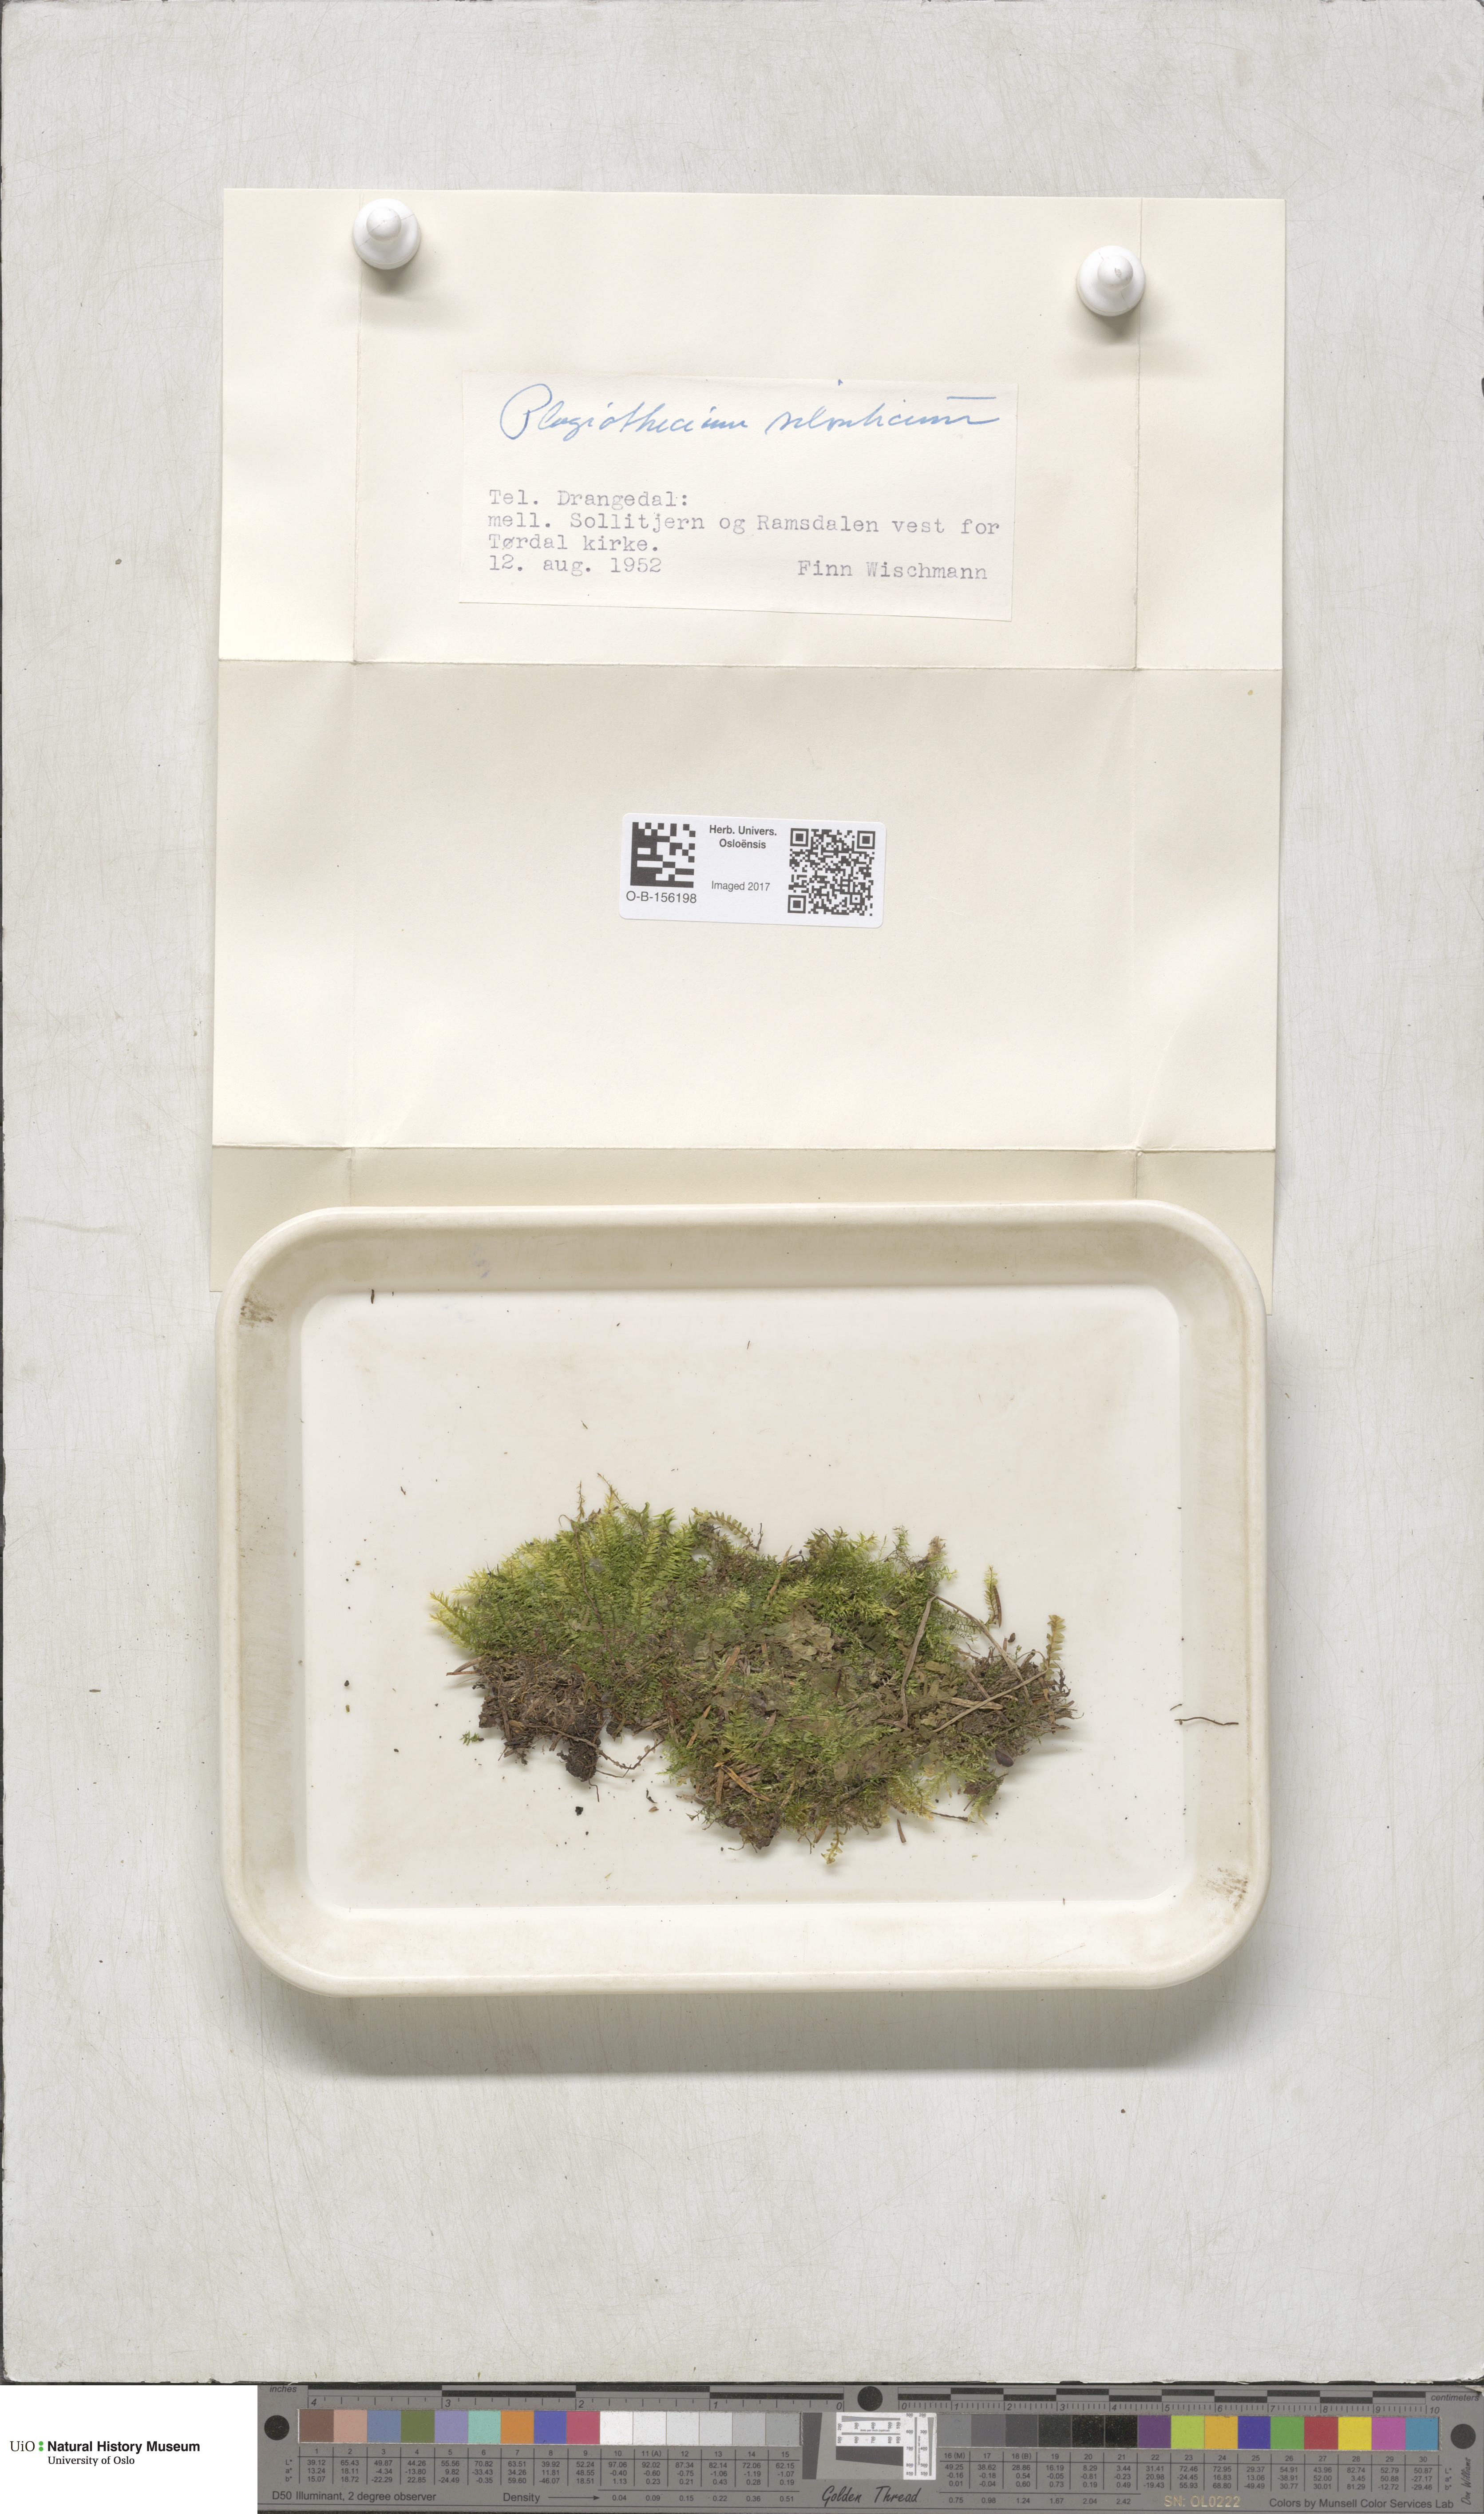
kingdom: Plantae
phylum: Bryophyta
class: Bryopsida
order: Hypnales
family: Plagiotheciaceae
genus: Plagiothecium
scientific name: Plagiothecium nemorale
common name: Woodsy silk-moss
